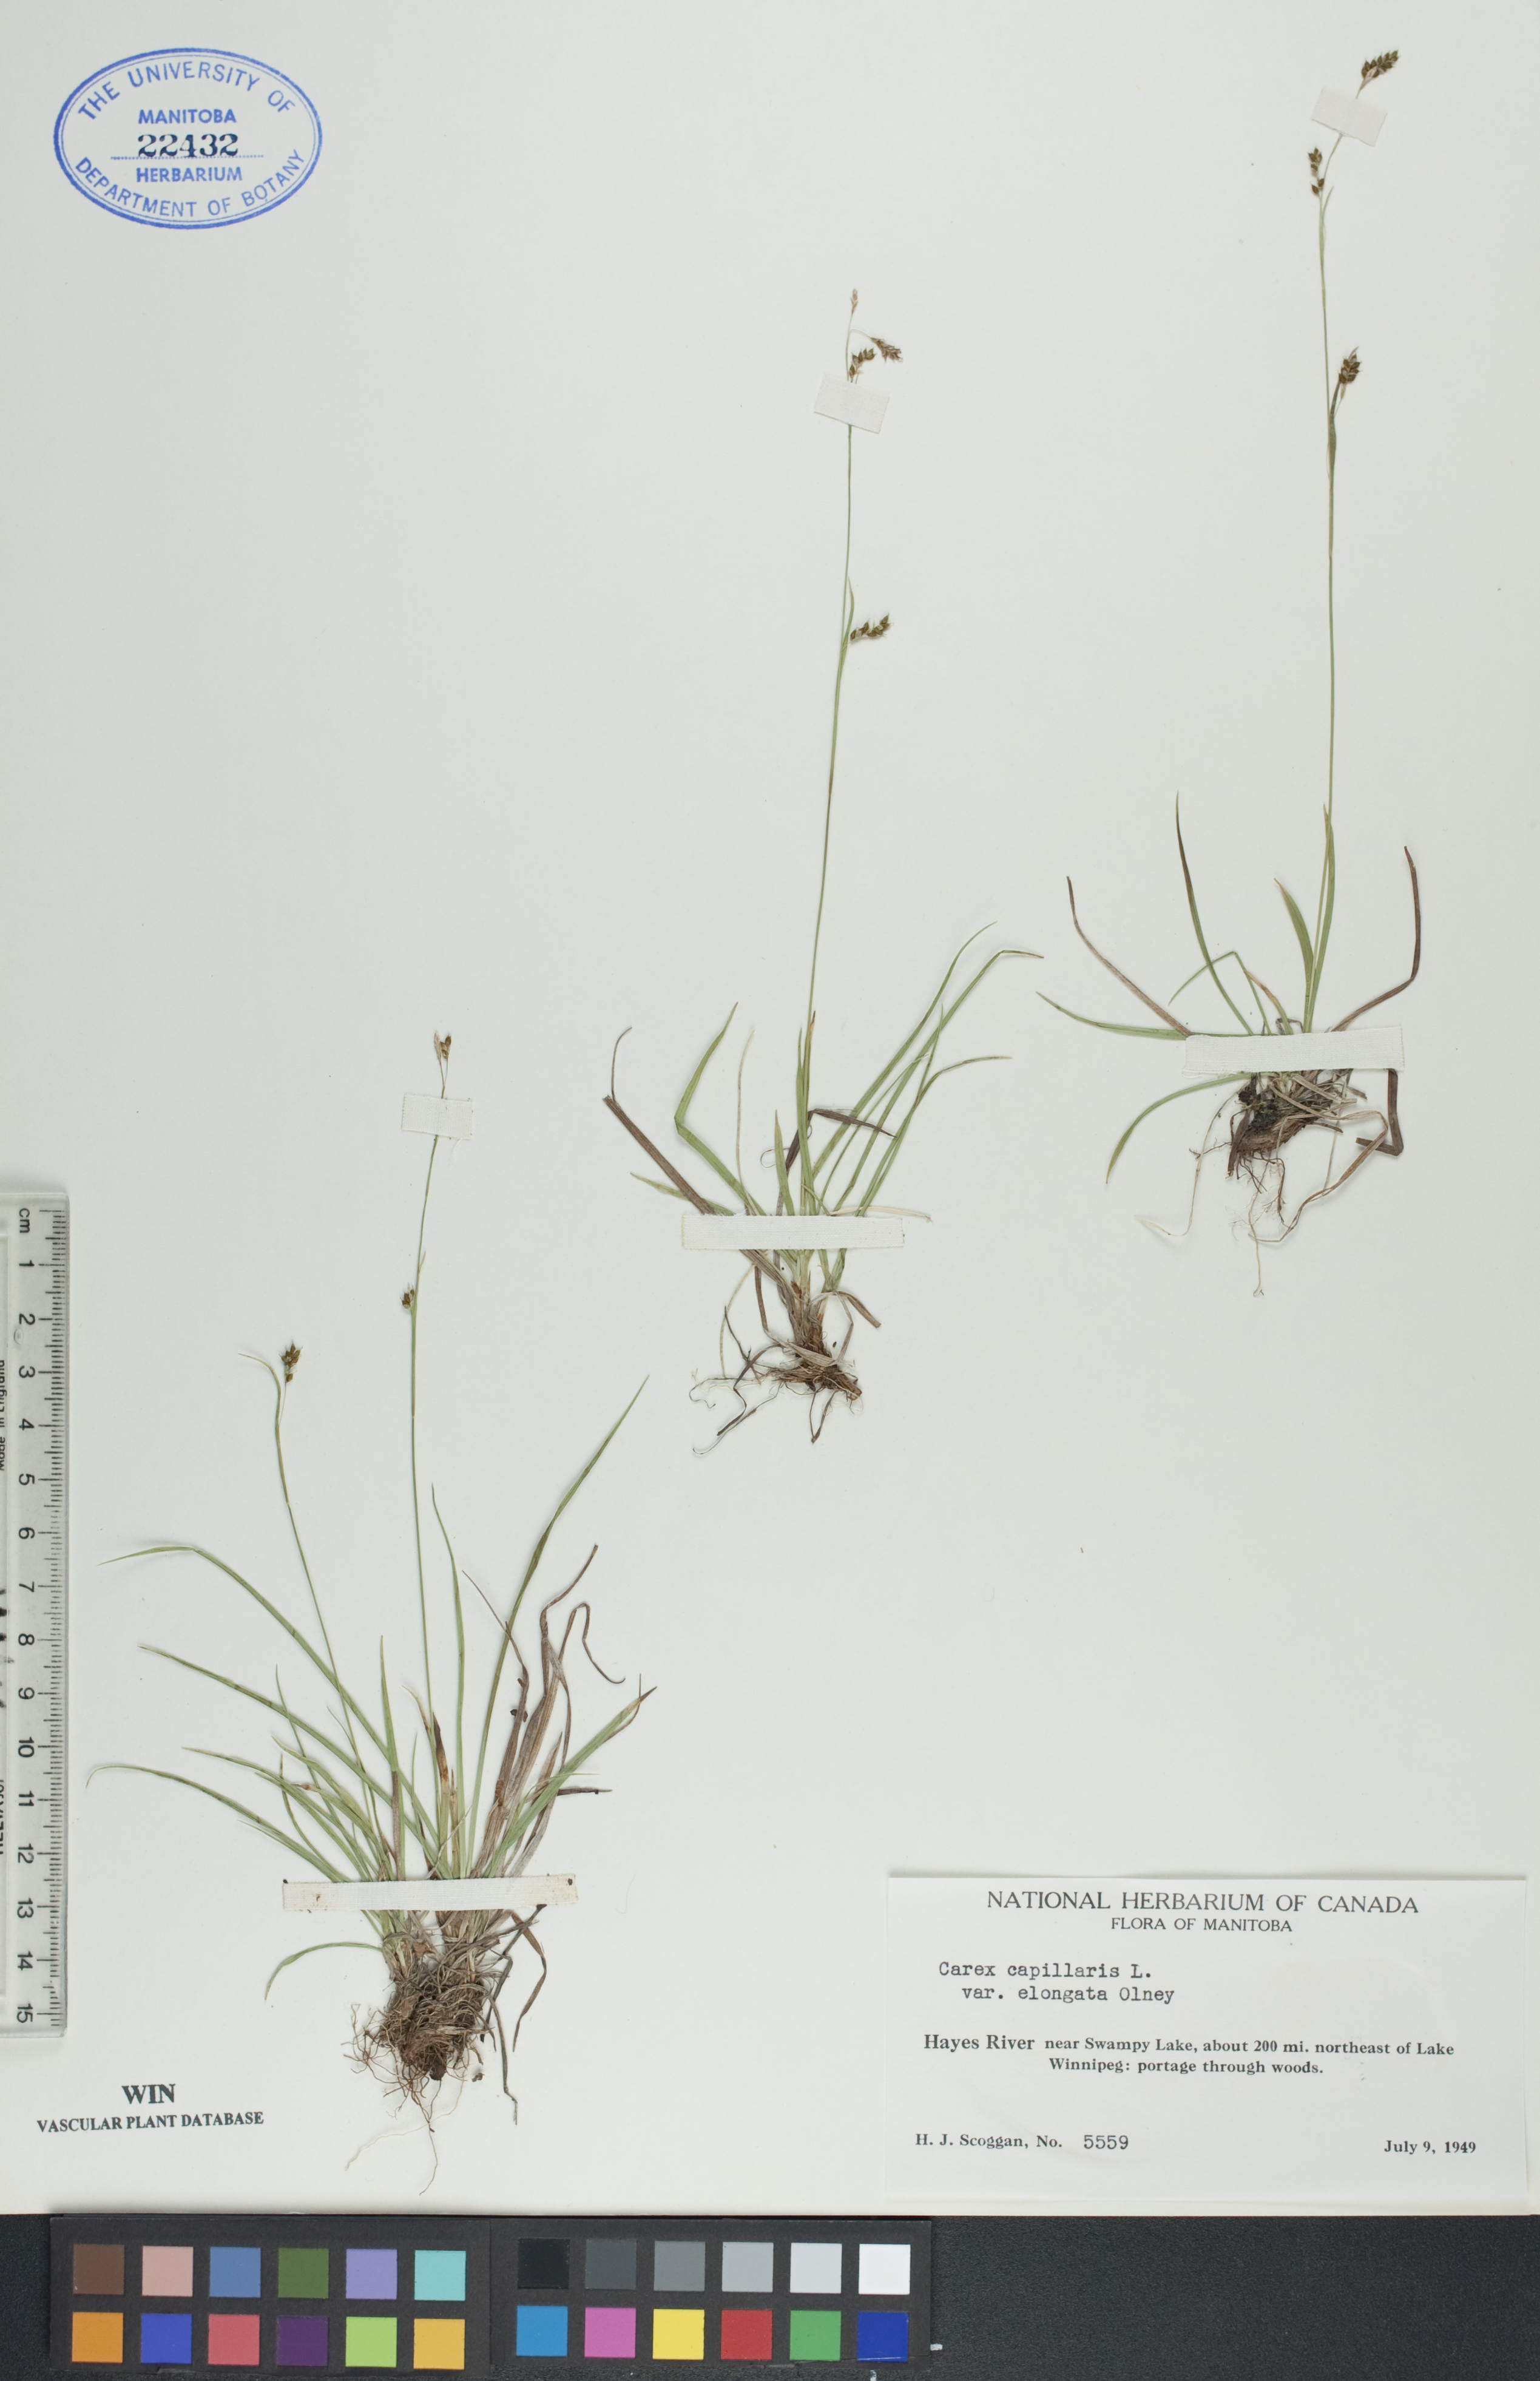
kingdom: Plantae
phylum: Tracheophyta
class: Liliopsida
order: Poales
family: Cyperaceae
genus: Carex
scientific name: Carex capillaris
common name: Hair sedge
